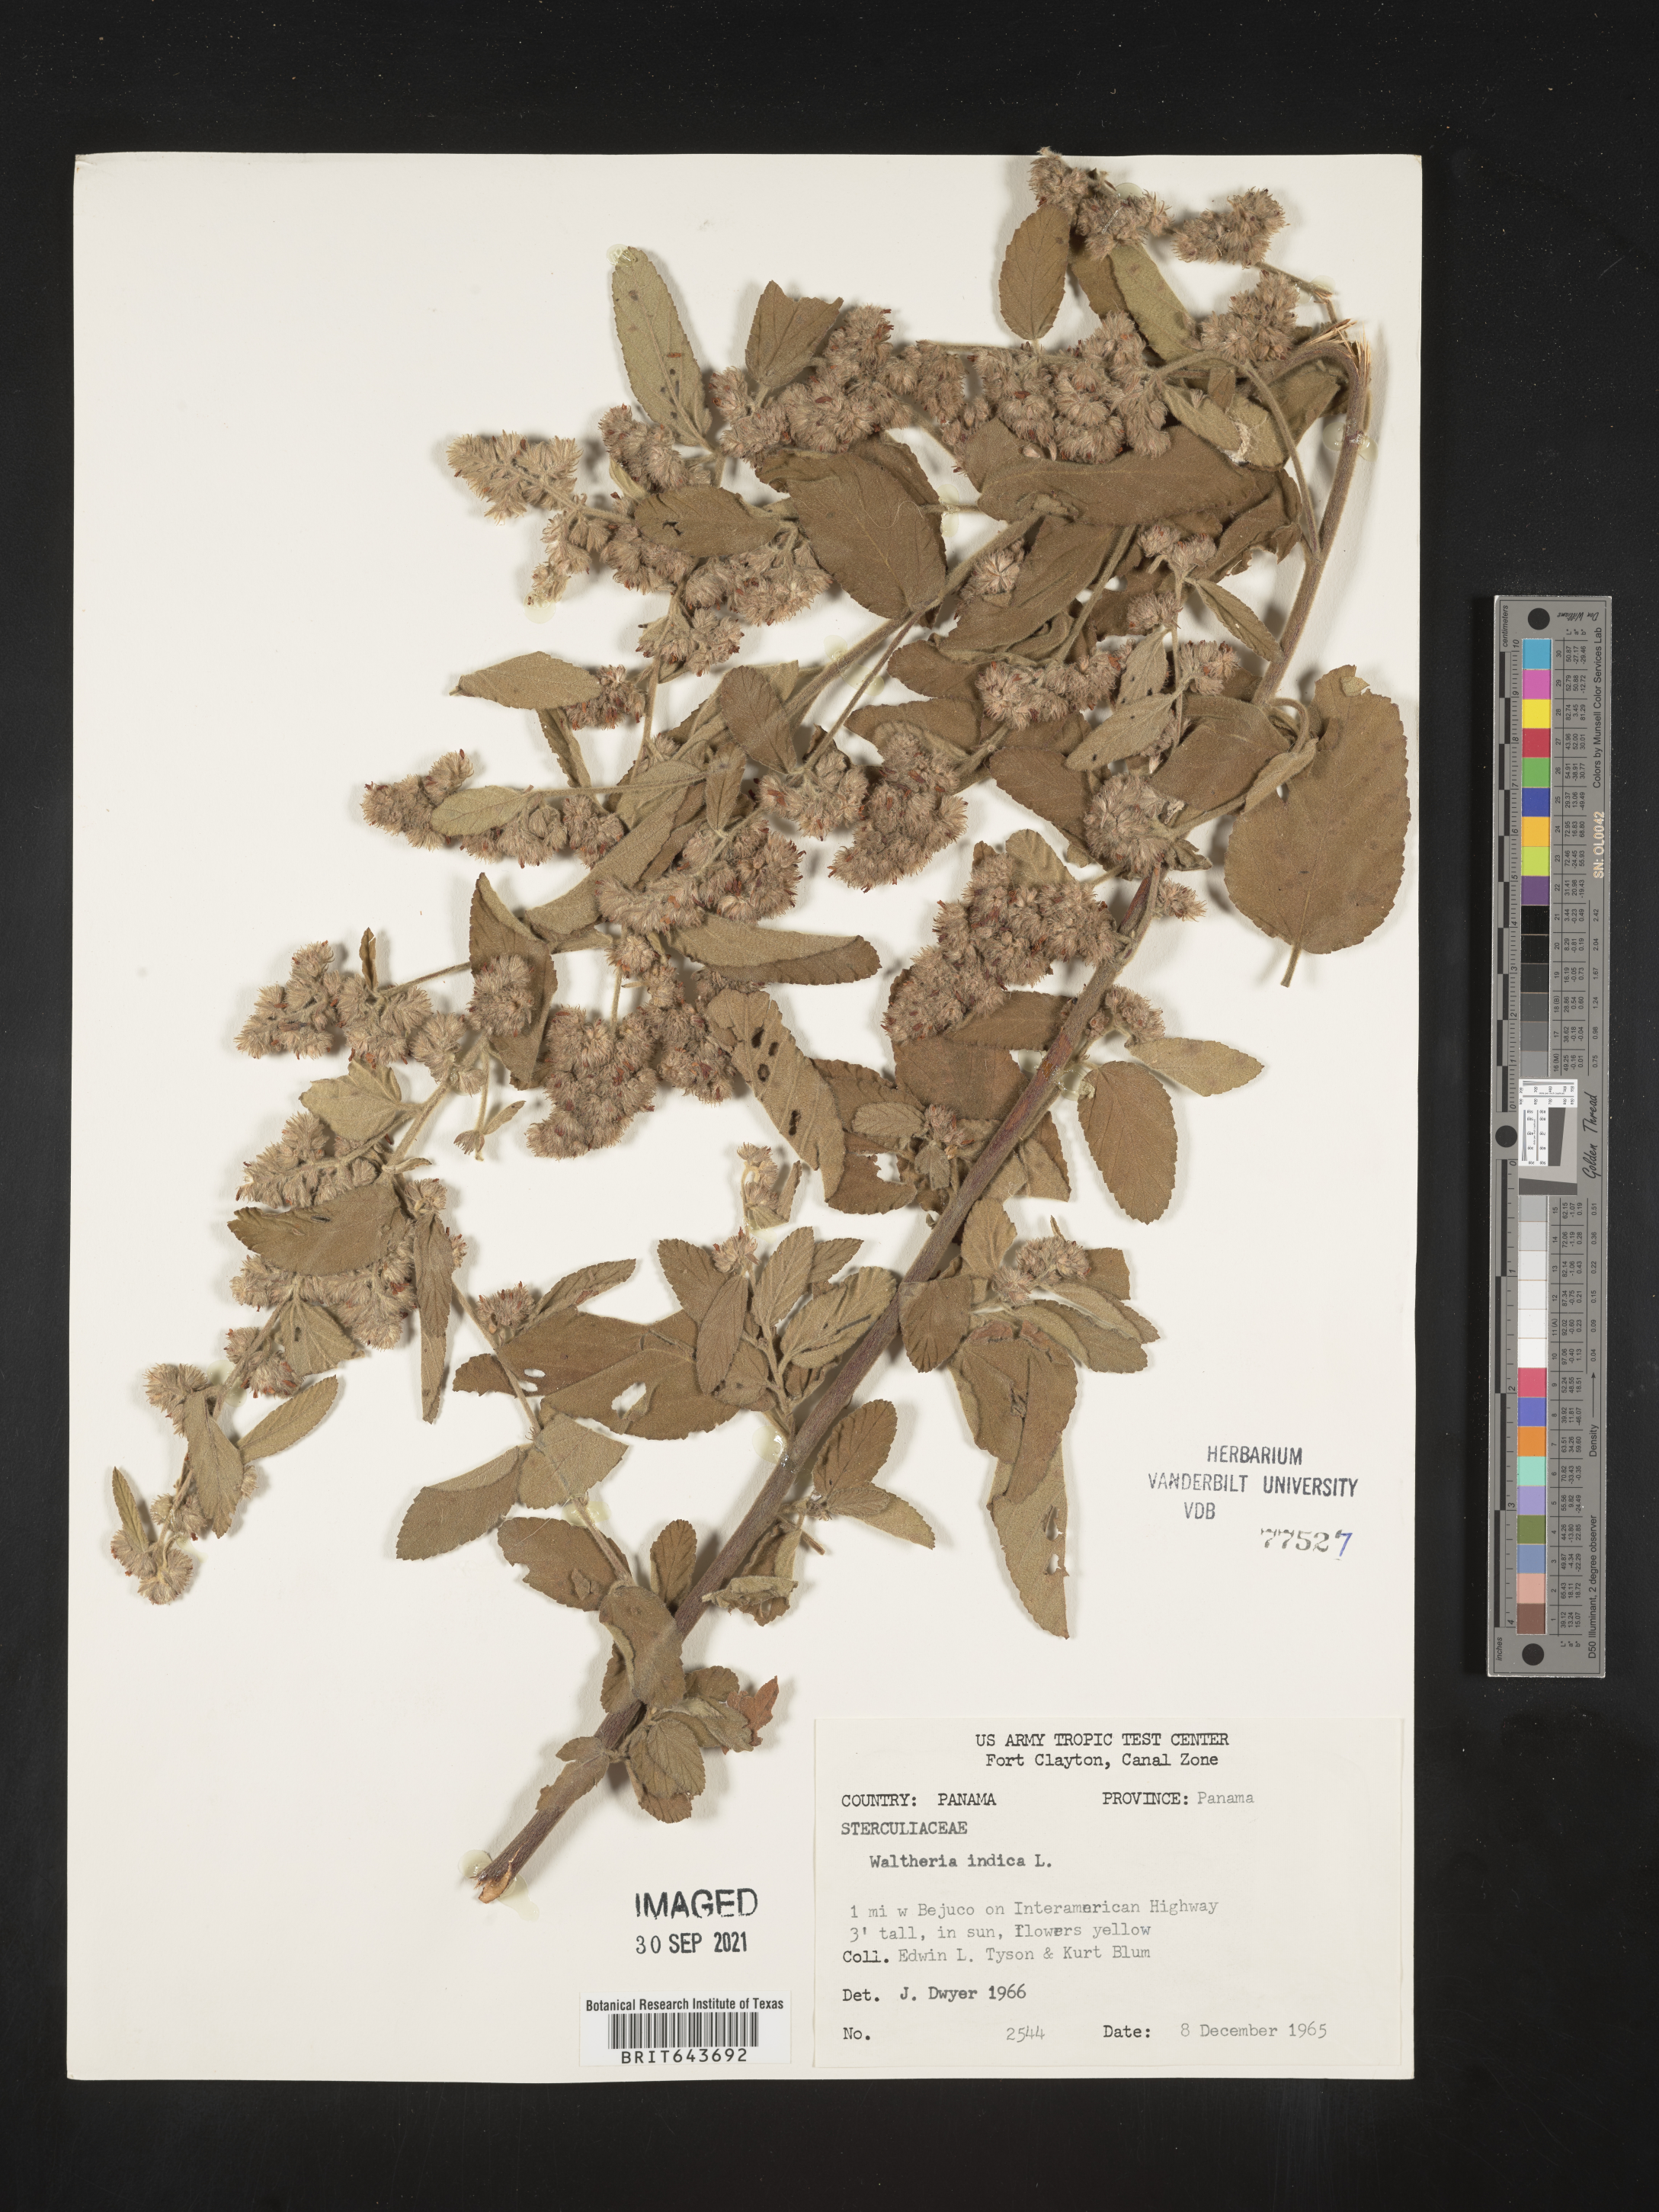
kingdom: Plantae
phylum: Tracheophyta
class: Magnoliopsida
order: Malvales
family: Malvaceae
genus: Waltheria
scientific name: Waltheria
